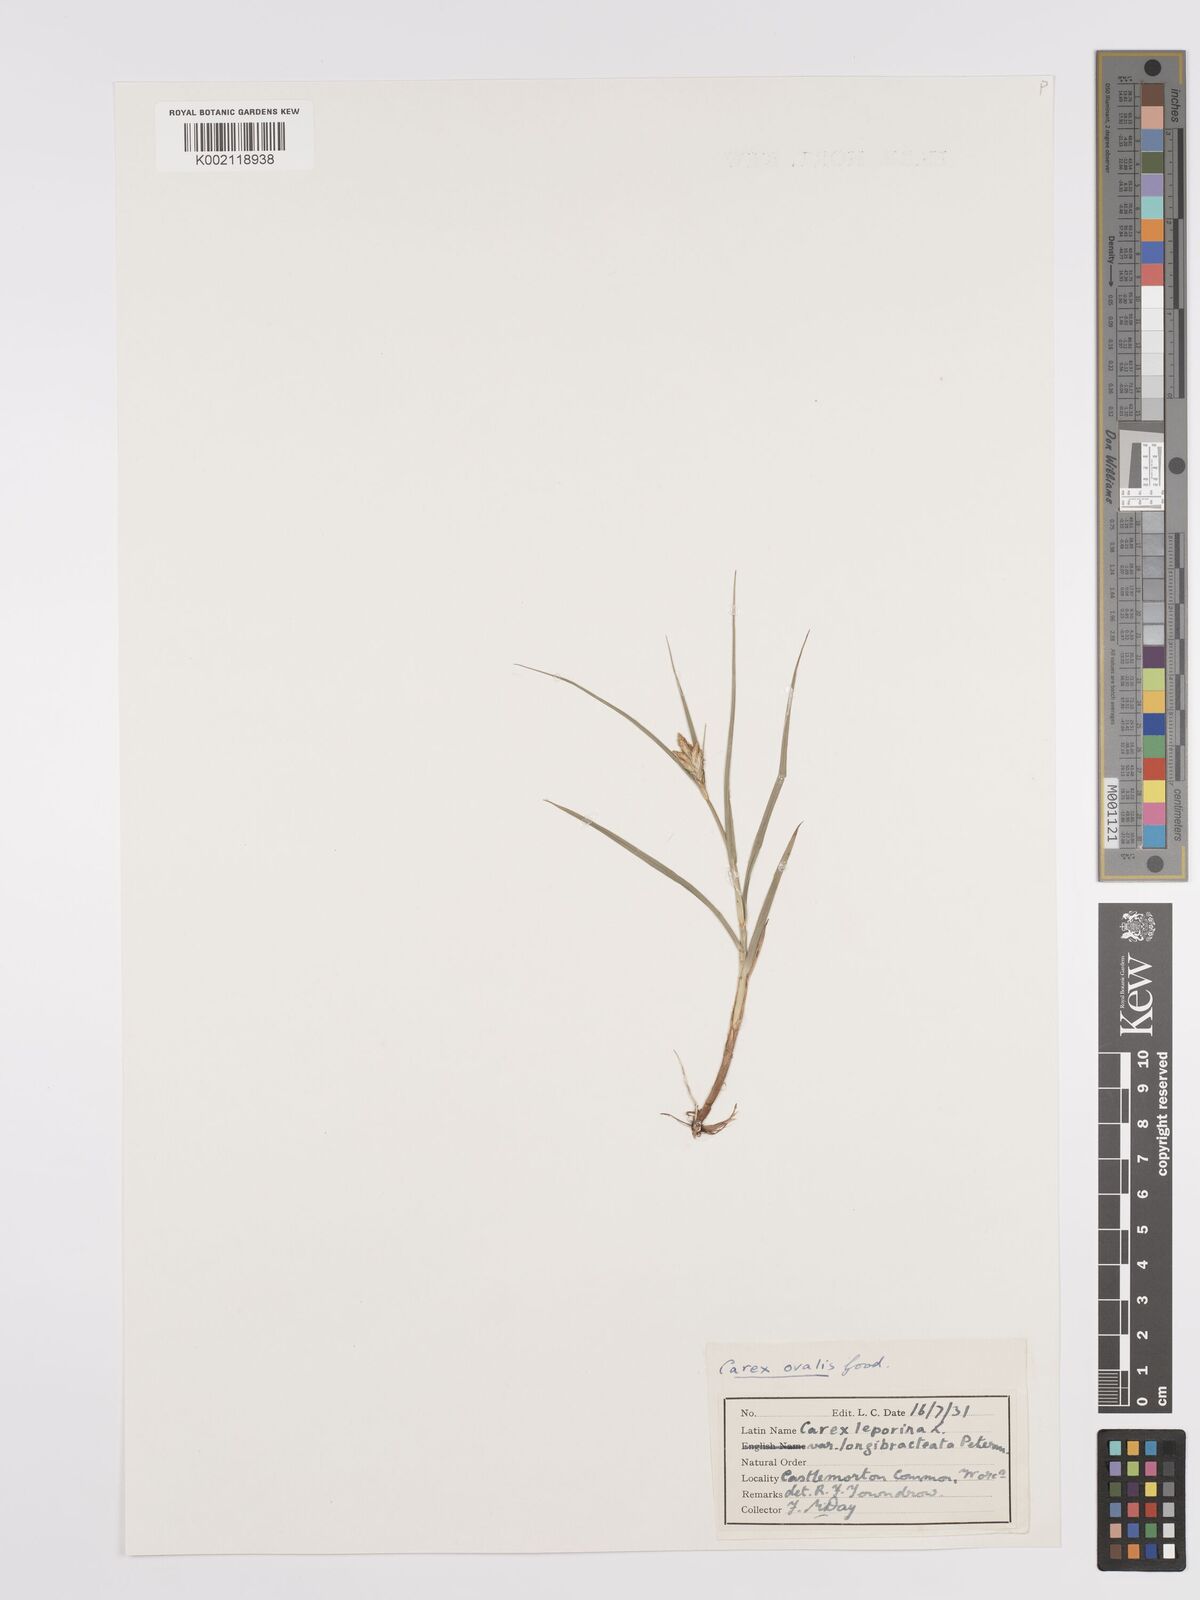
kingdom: Plantae
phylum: Tracheophyta
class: Liliopsida
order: Poales
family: Cyperaceae
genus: Carex
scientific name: Carex leporina
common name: Oval sedge
